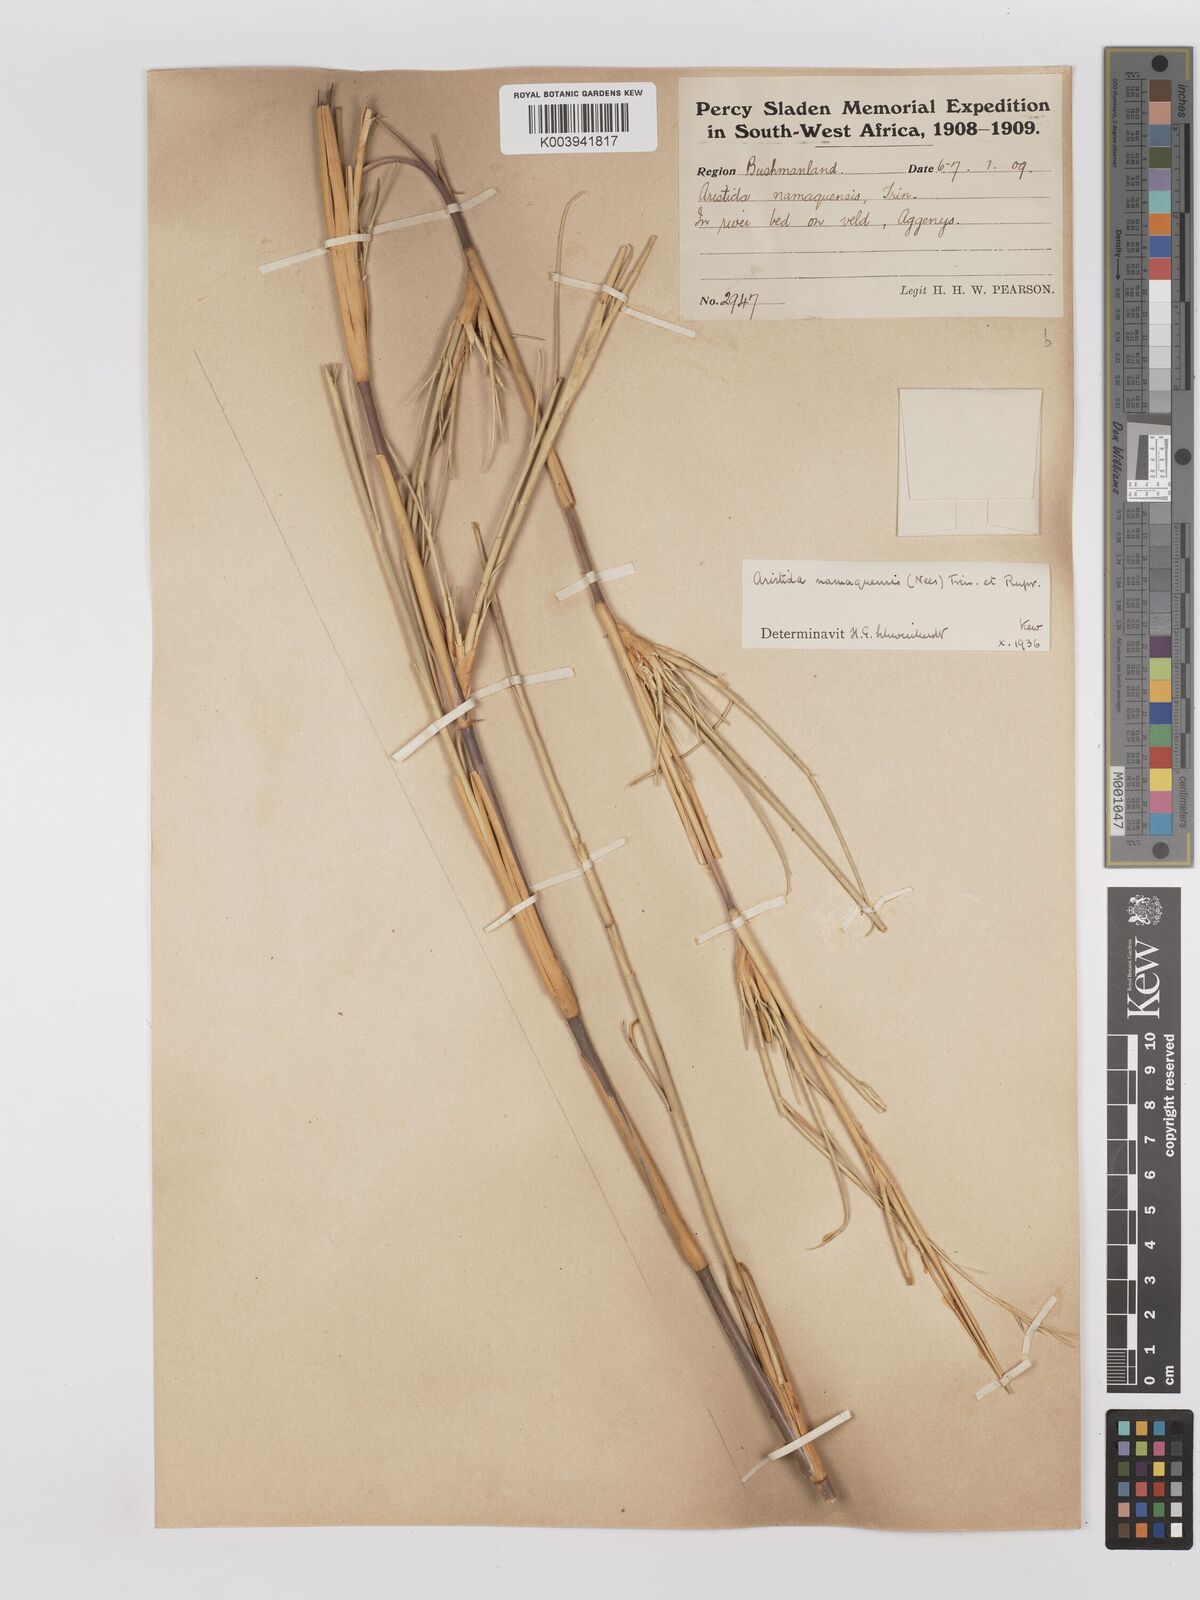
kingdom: Plantae
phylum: Tracheophyta
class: Liliopsida
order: Poales
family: Poaceae
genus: Stipagrostis
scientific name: Stipagrostis namaquensis
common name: River bushman grass
